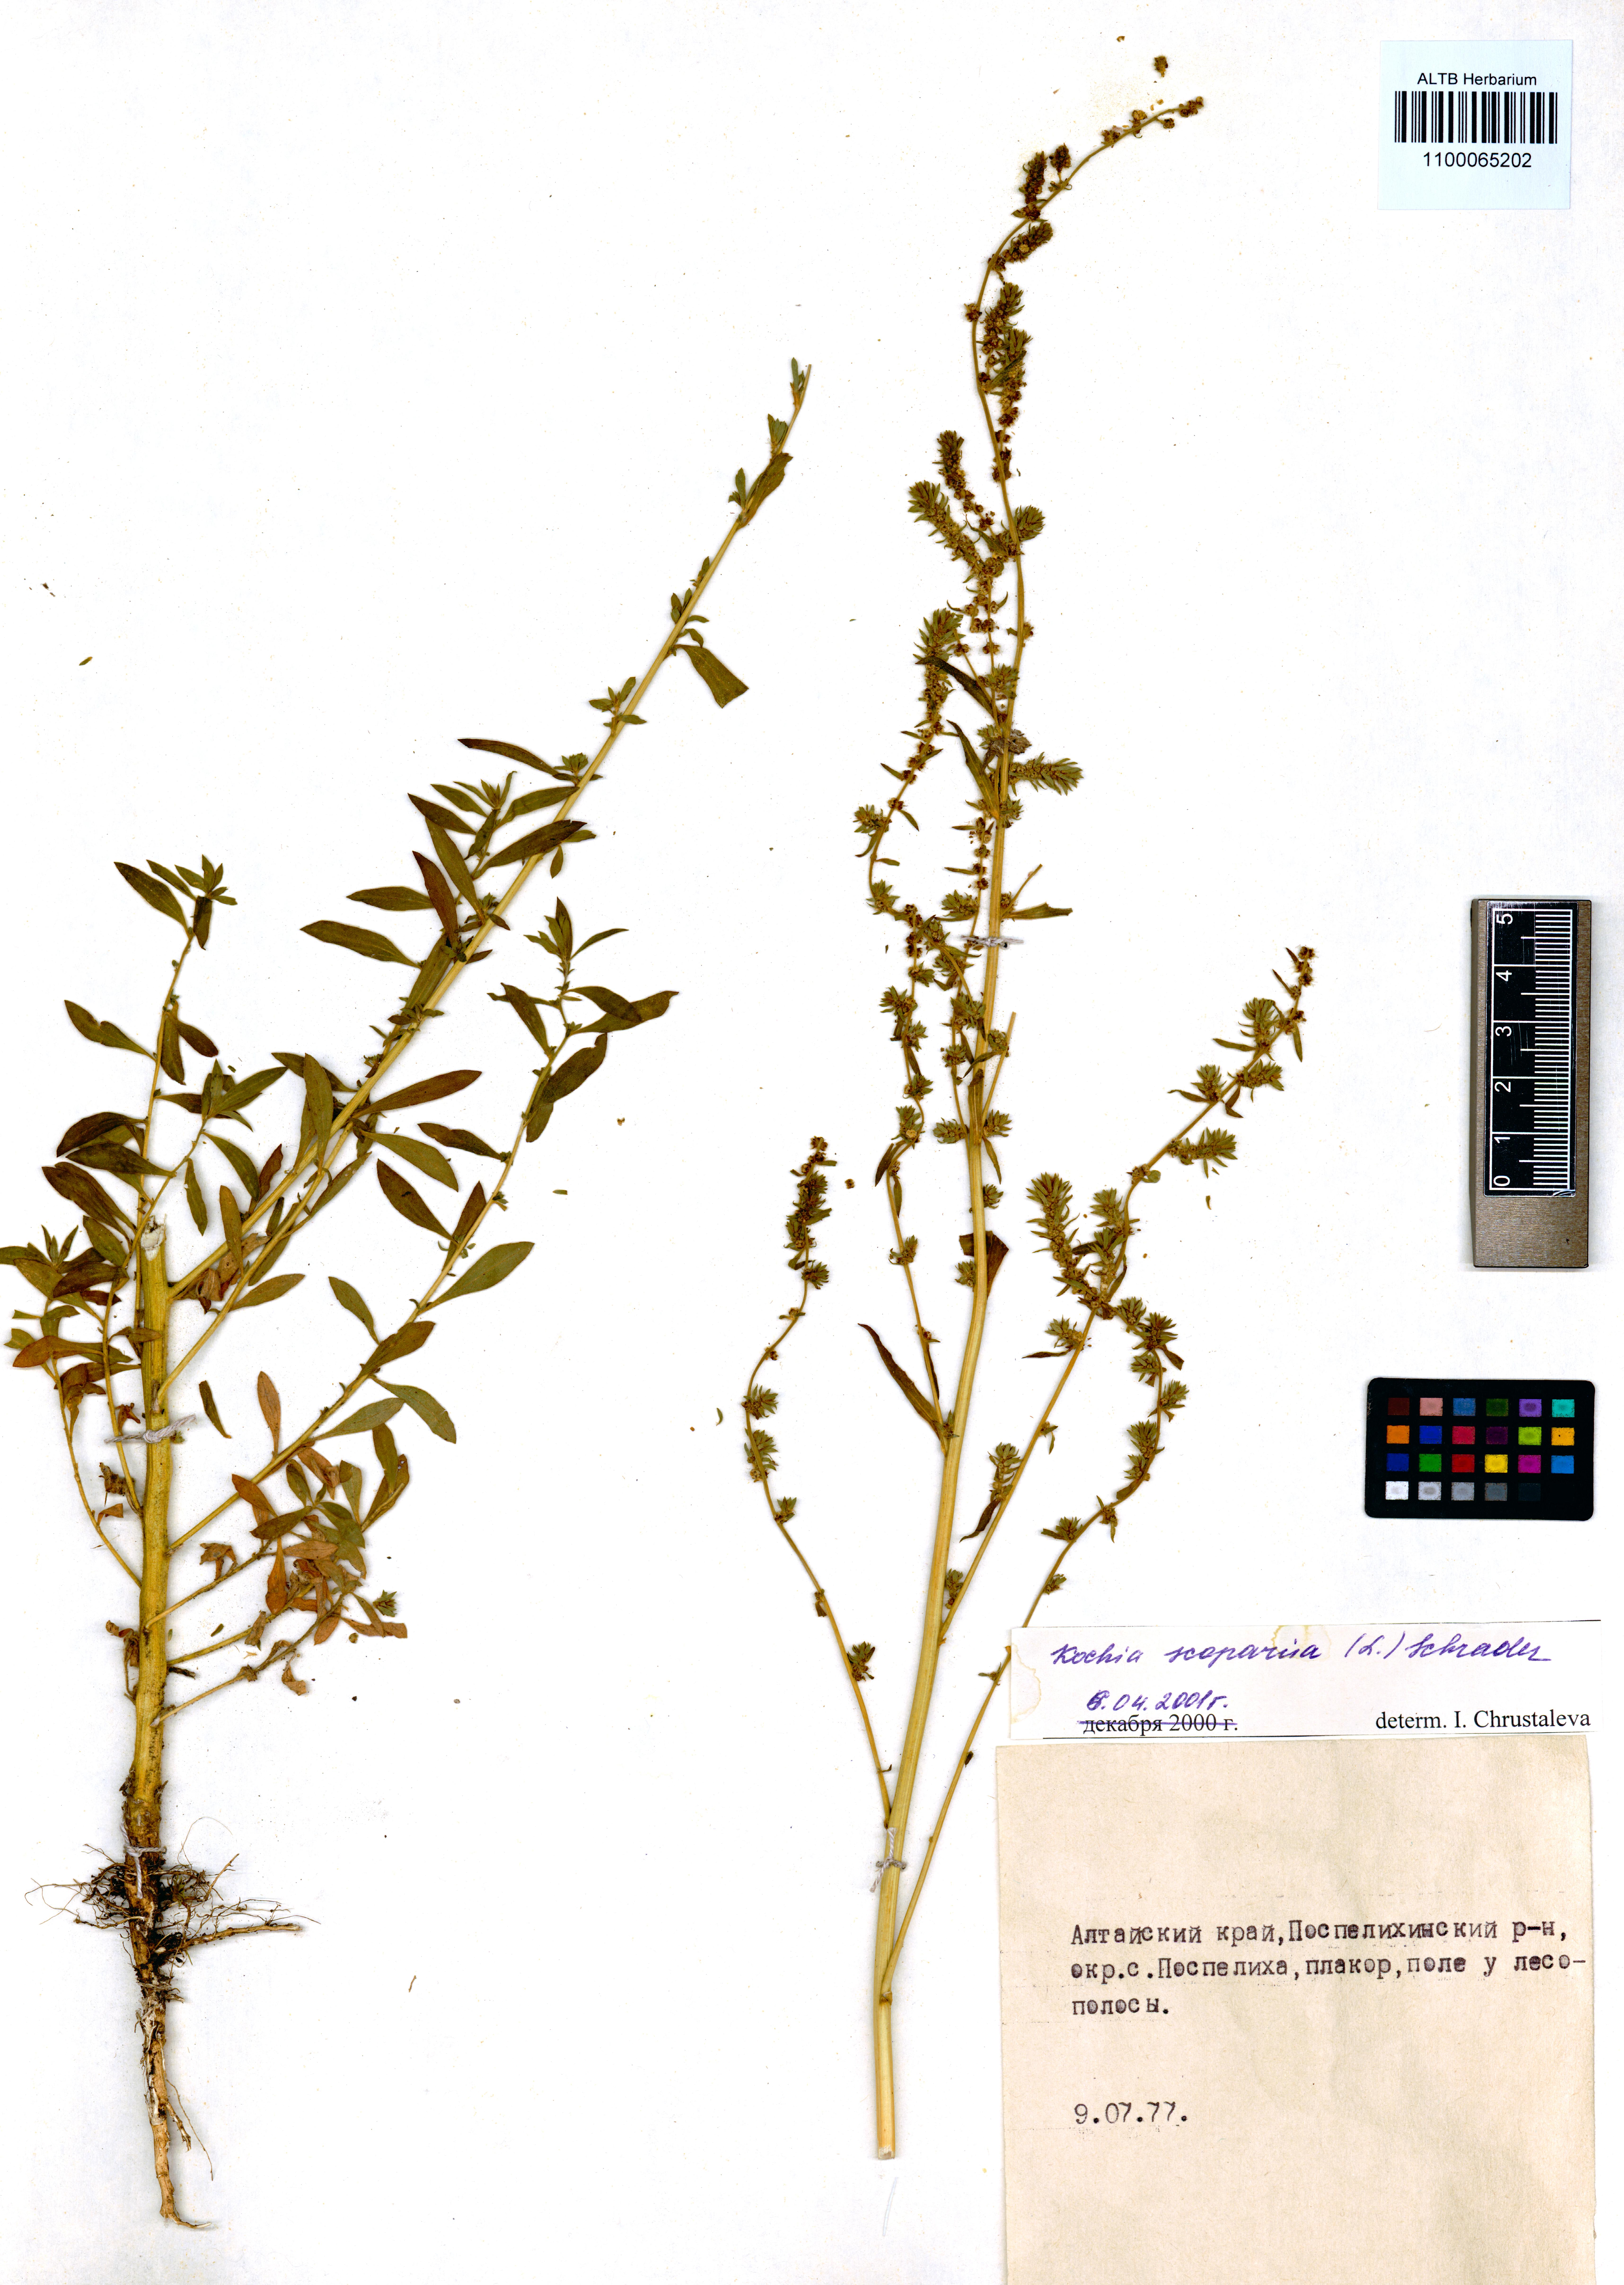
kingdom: Plantae
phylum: Tracheophyta
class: Magnoliopsida
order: Caryophyllales
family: Amaranthaceae
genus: Bassia
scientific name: Bassia scoparia
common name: Belvedere
